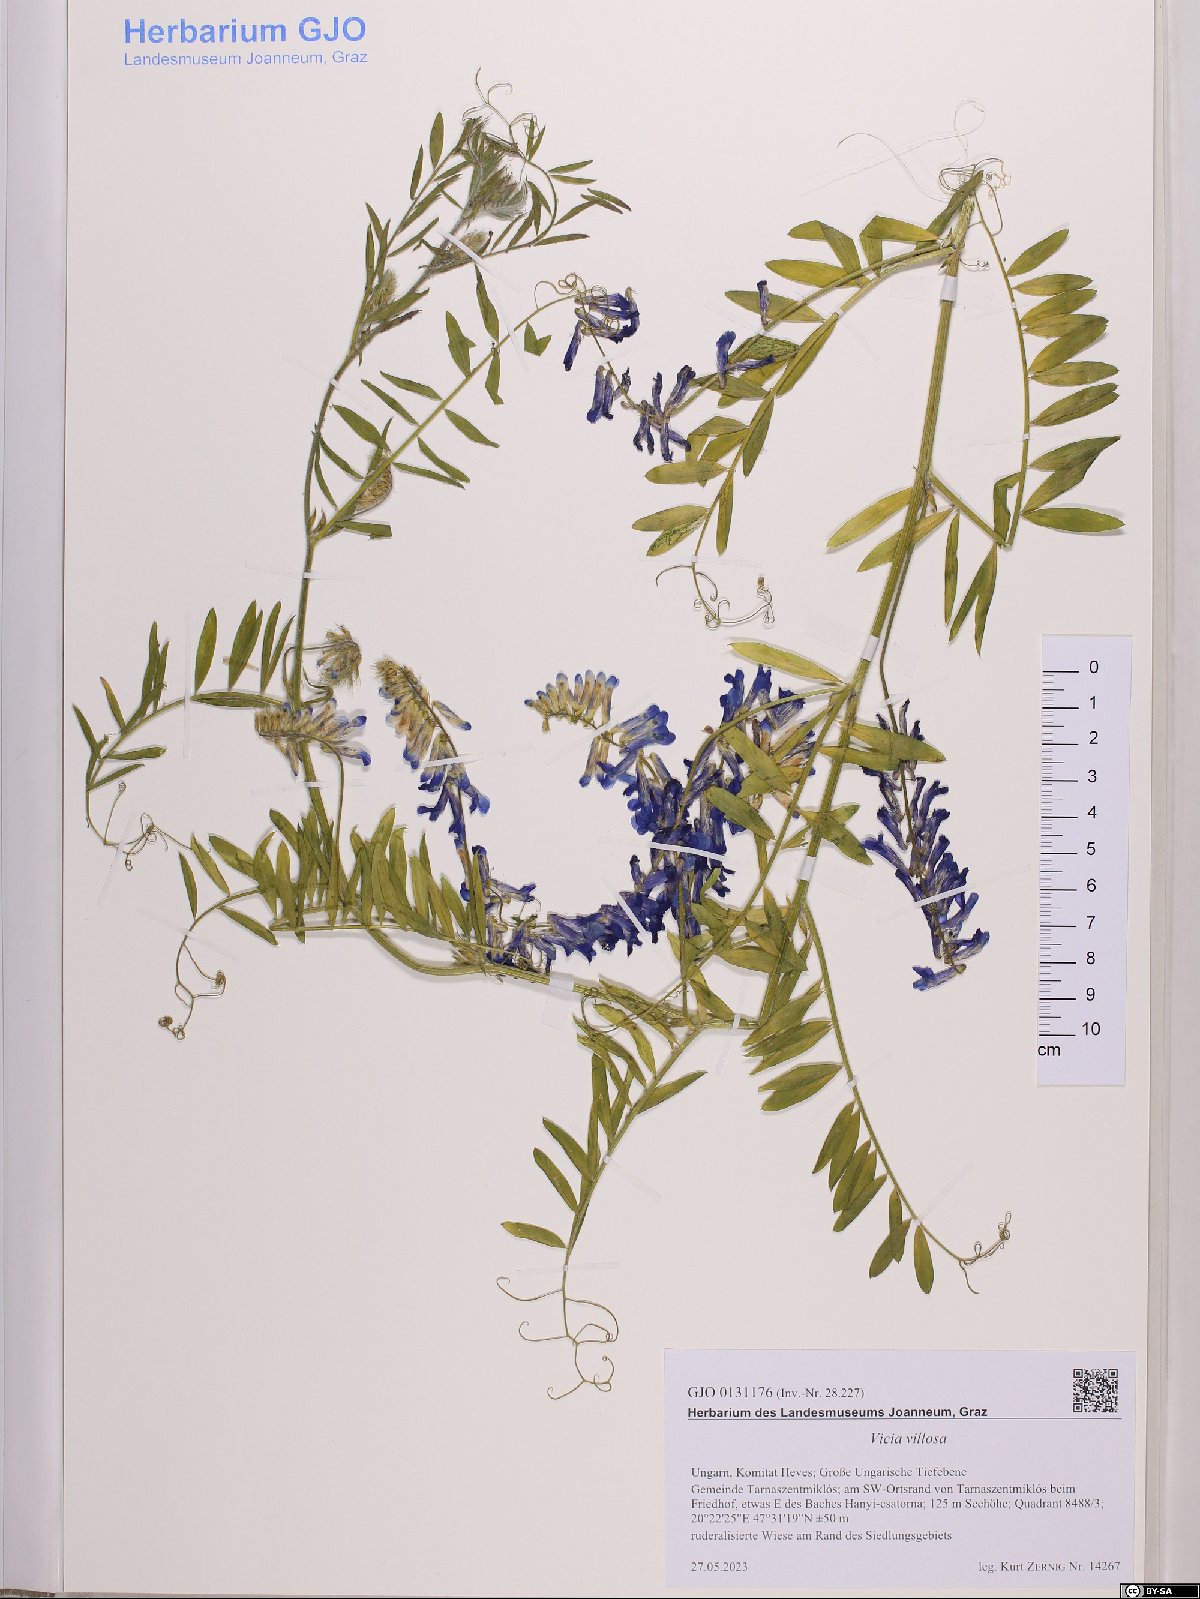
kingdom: Plantae
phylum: Tracheophyta
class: Magnoliopsida
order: Fabales
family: Fabaceae
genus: Vicia
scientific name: Vicia villosa
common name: Fodder vetch
